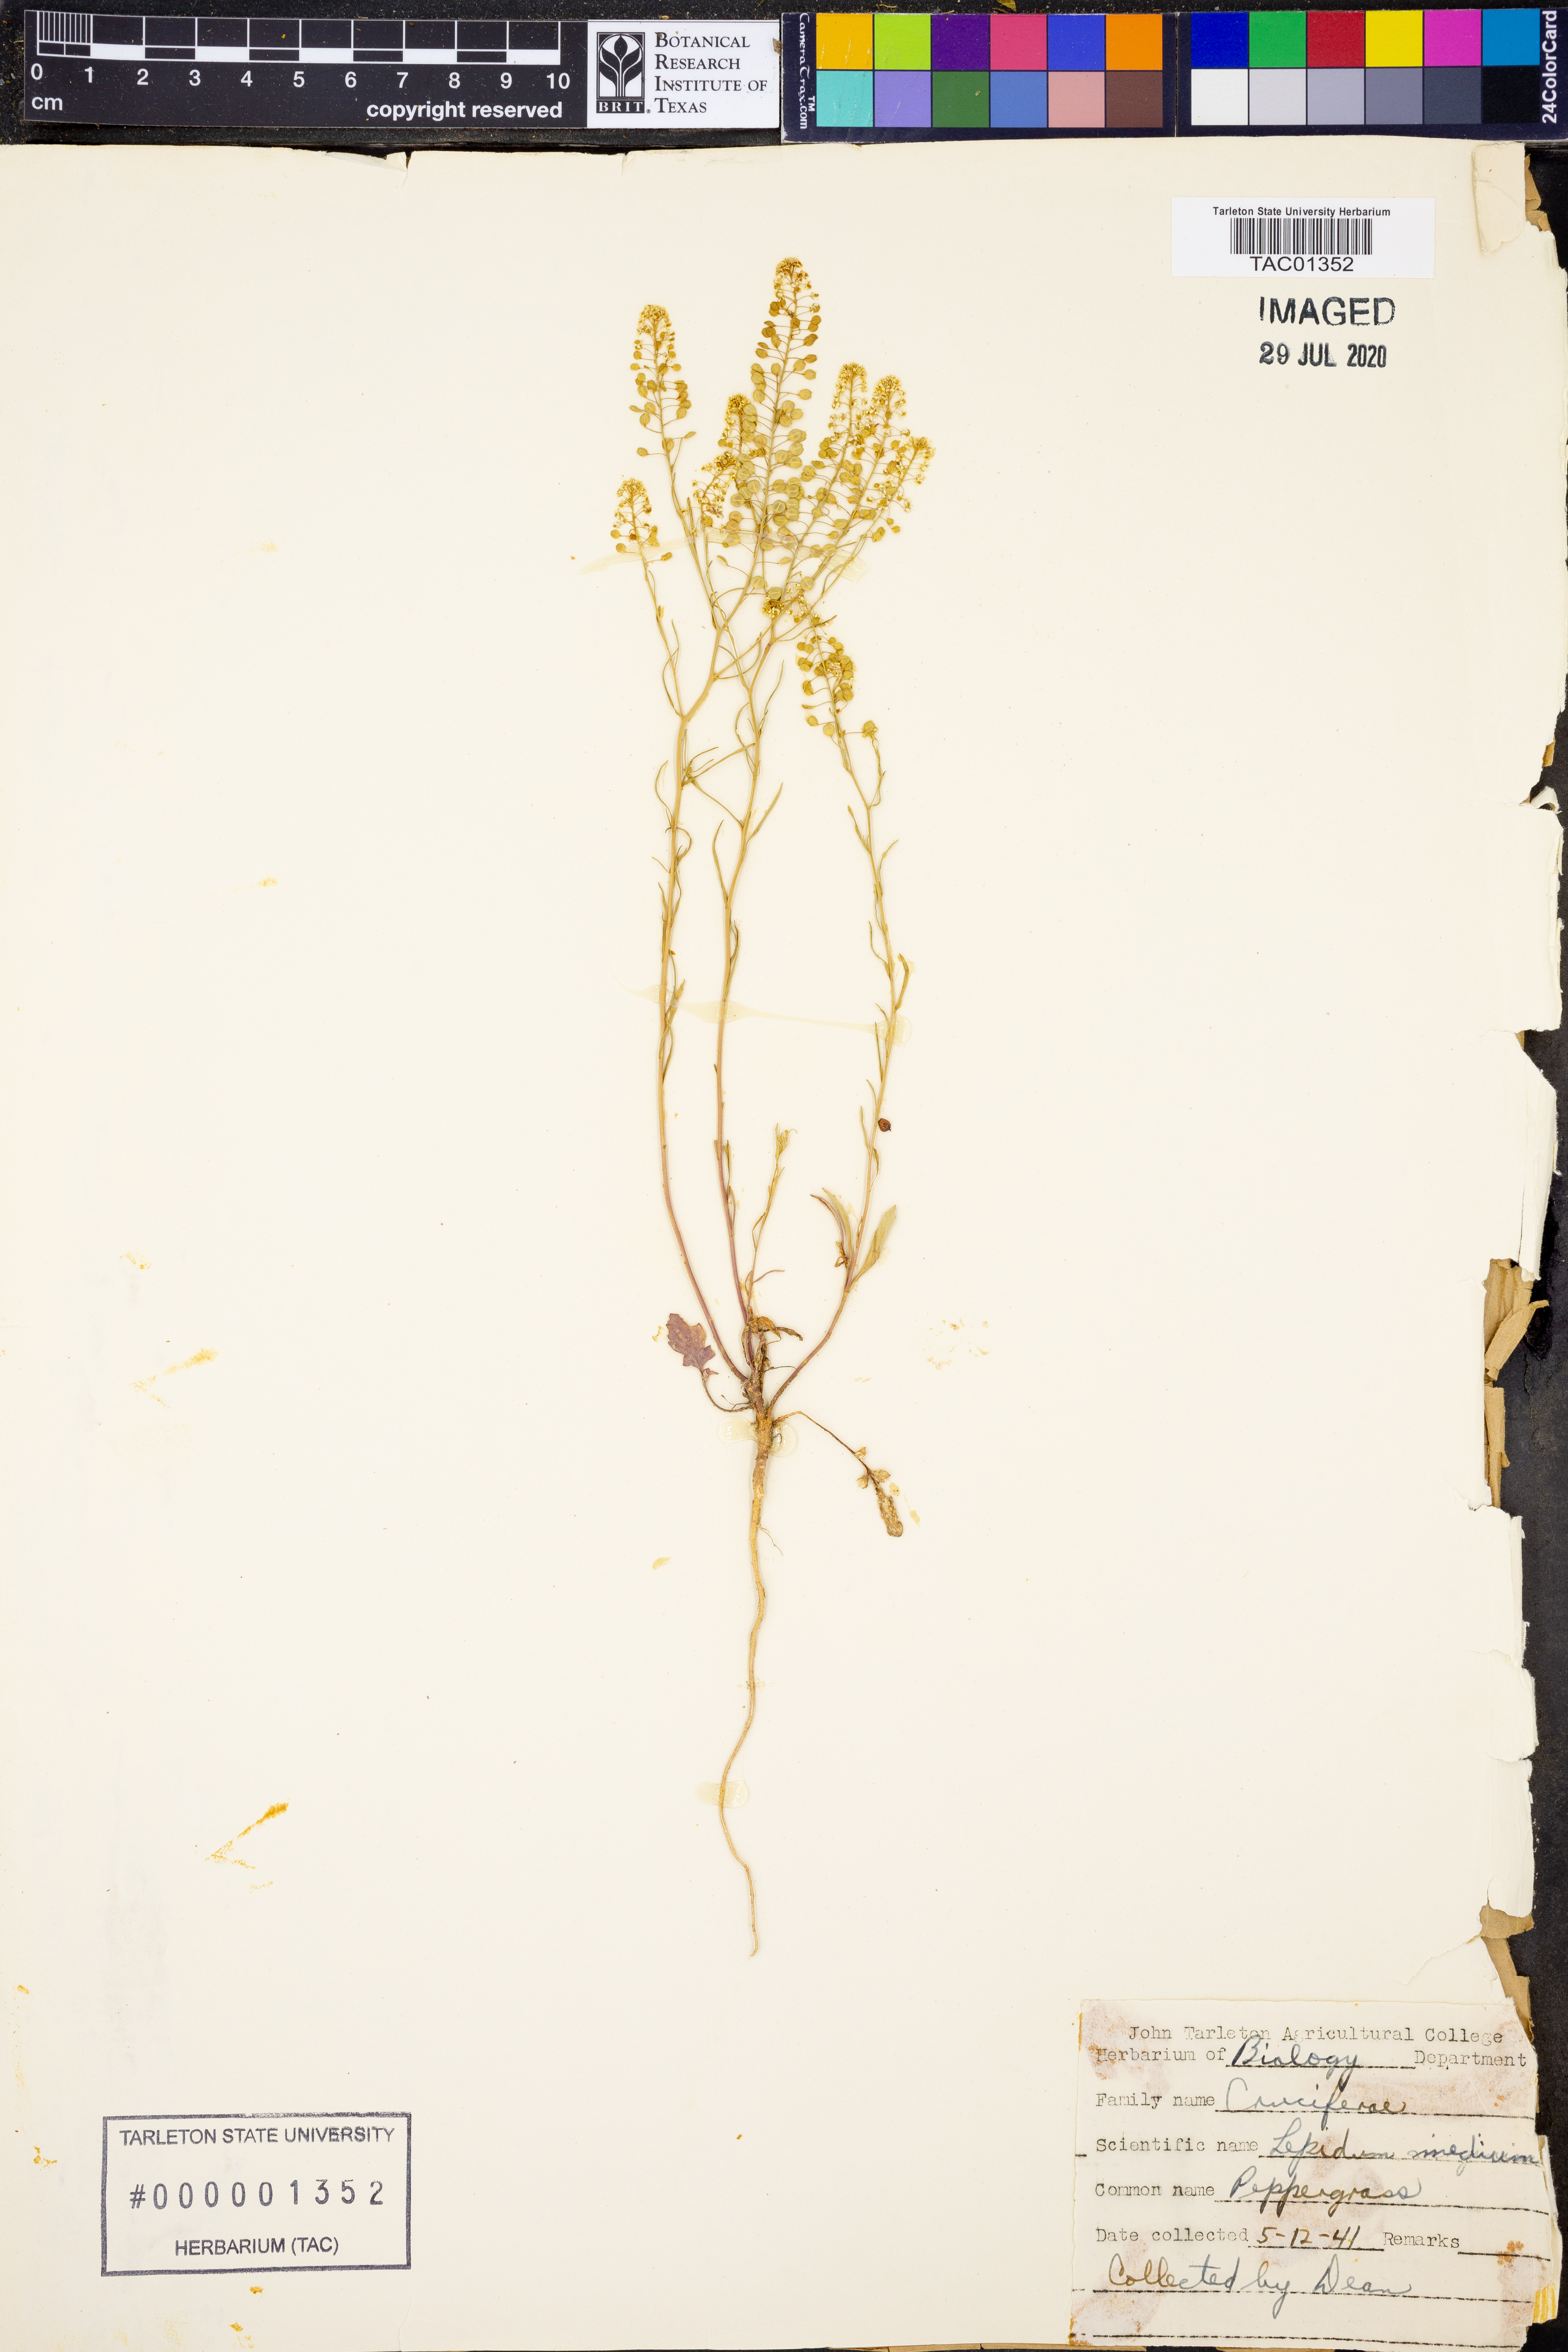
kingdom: Plantae
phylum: Tracheophyta
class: Magnoliopsida
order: Brassicales
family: Brassicaceae
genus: Lepidium
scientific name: Lepidium virginicum
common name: Least pepperwort
